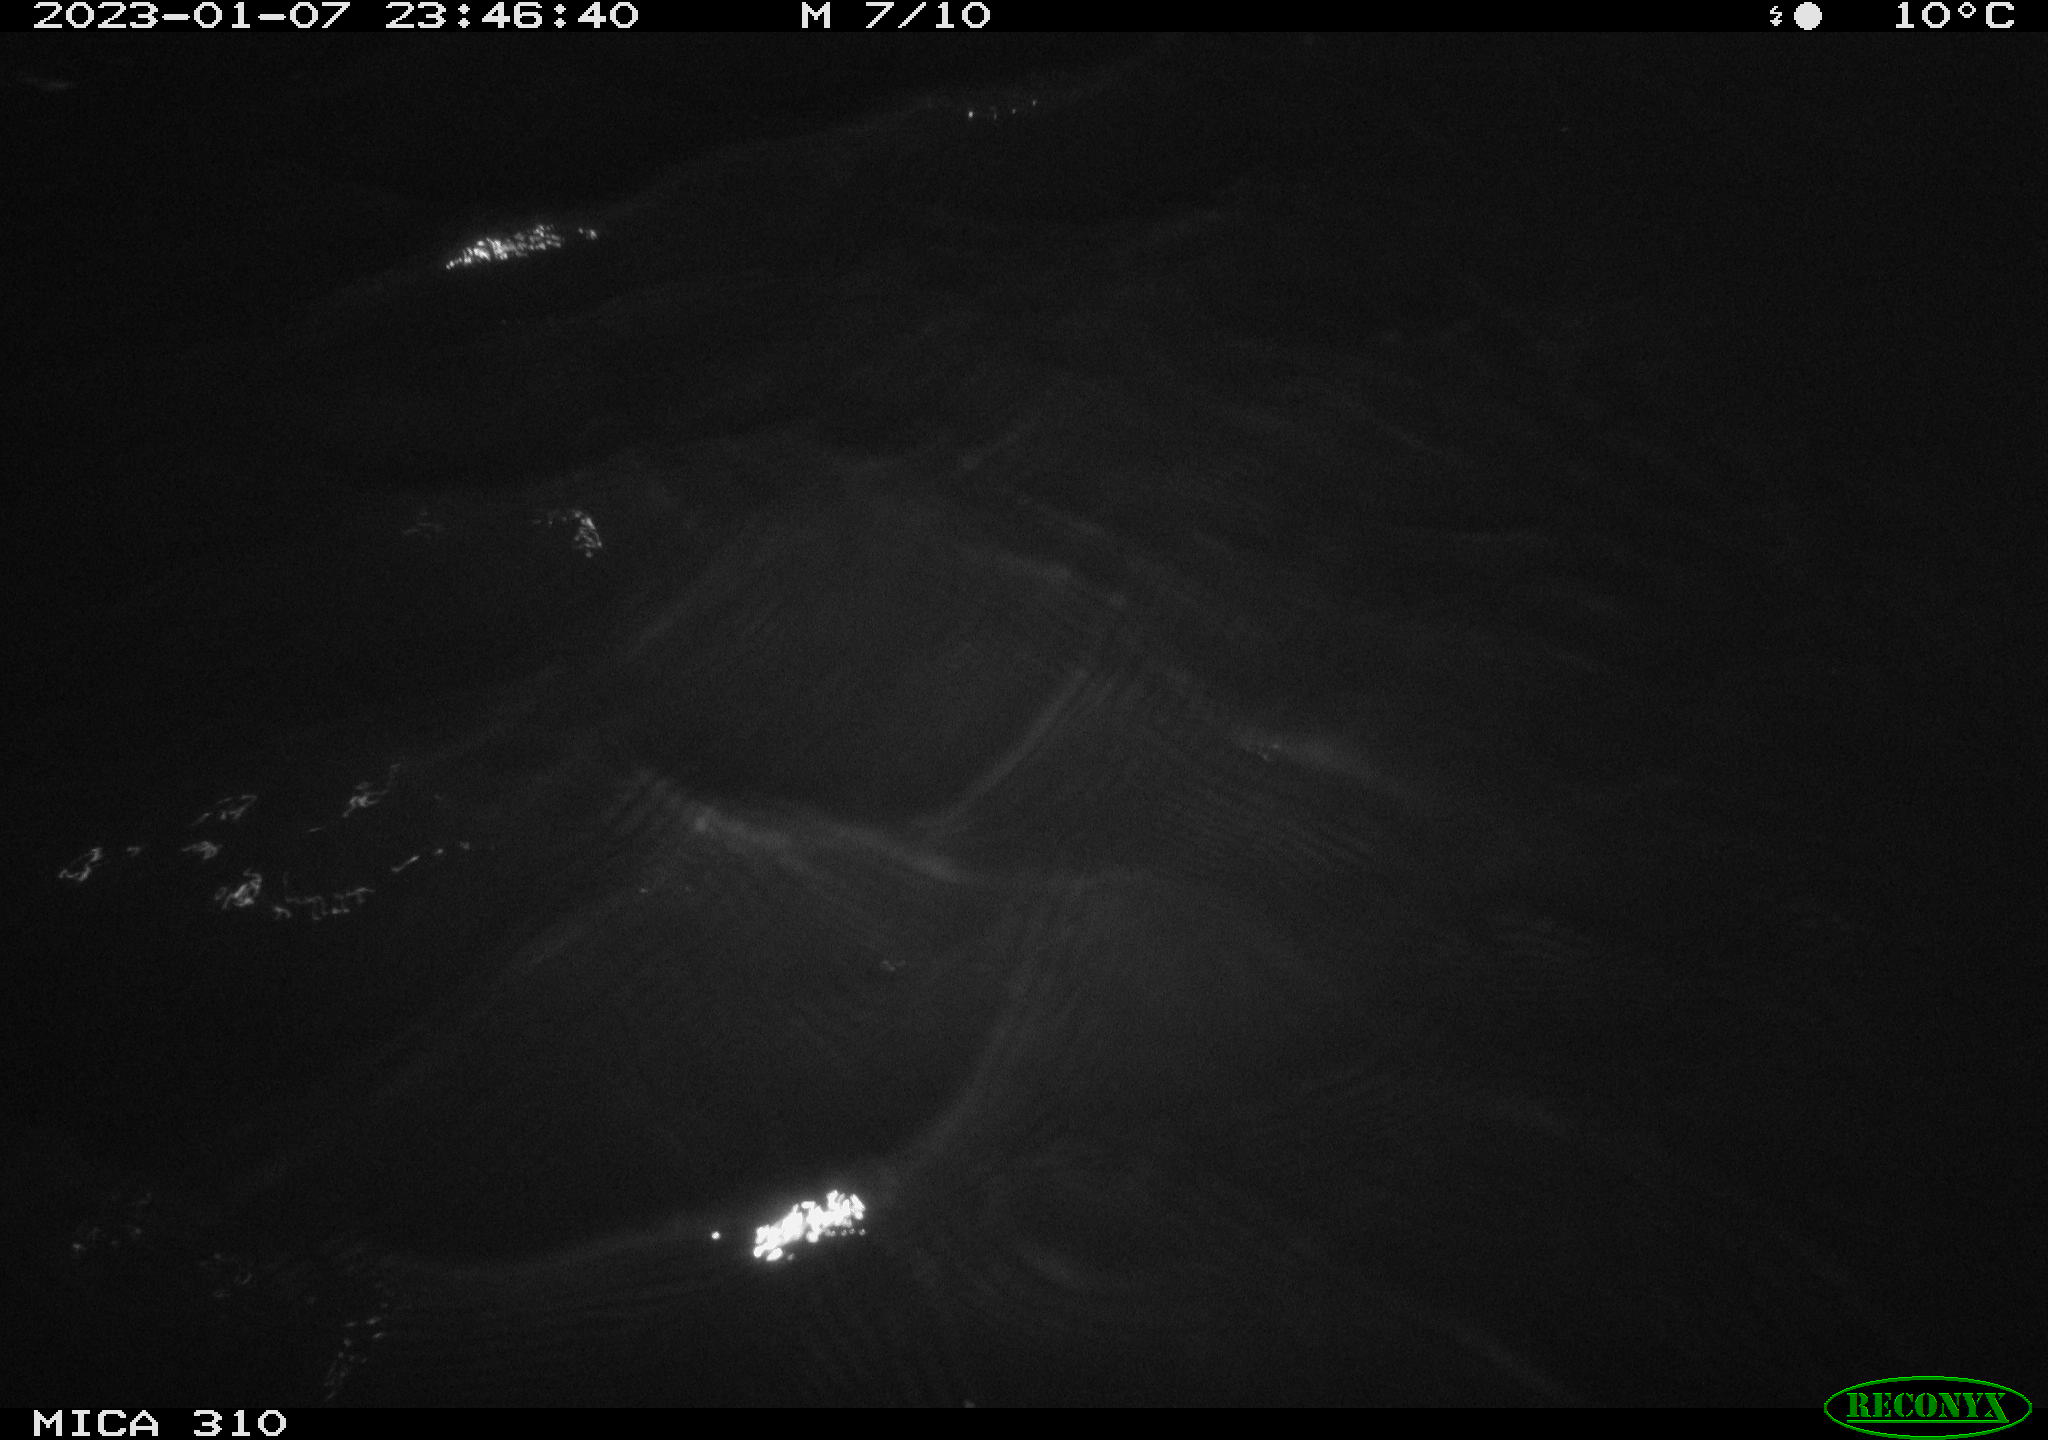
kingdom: Animalia
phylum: Chordata
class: Mammalia
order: Rodentia
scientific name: Rodentia
